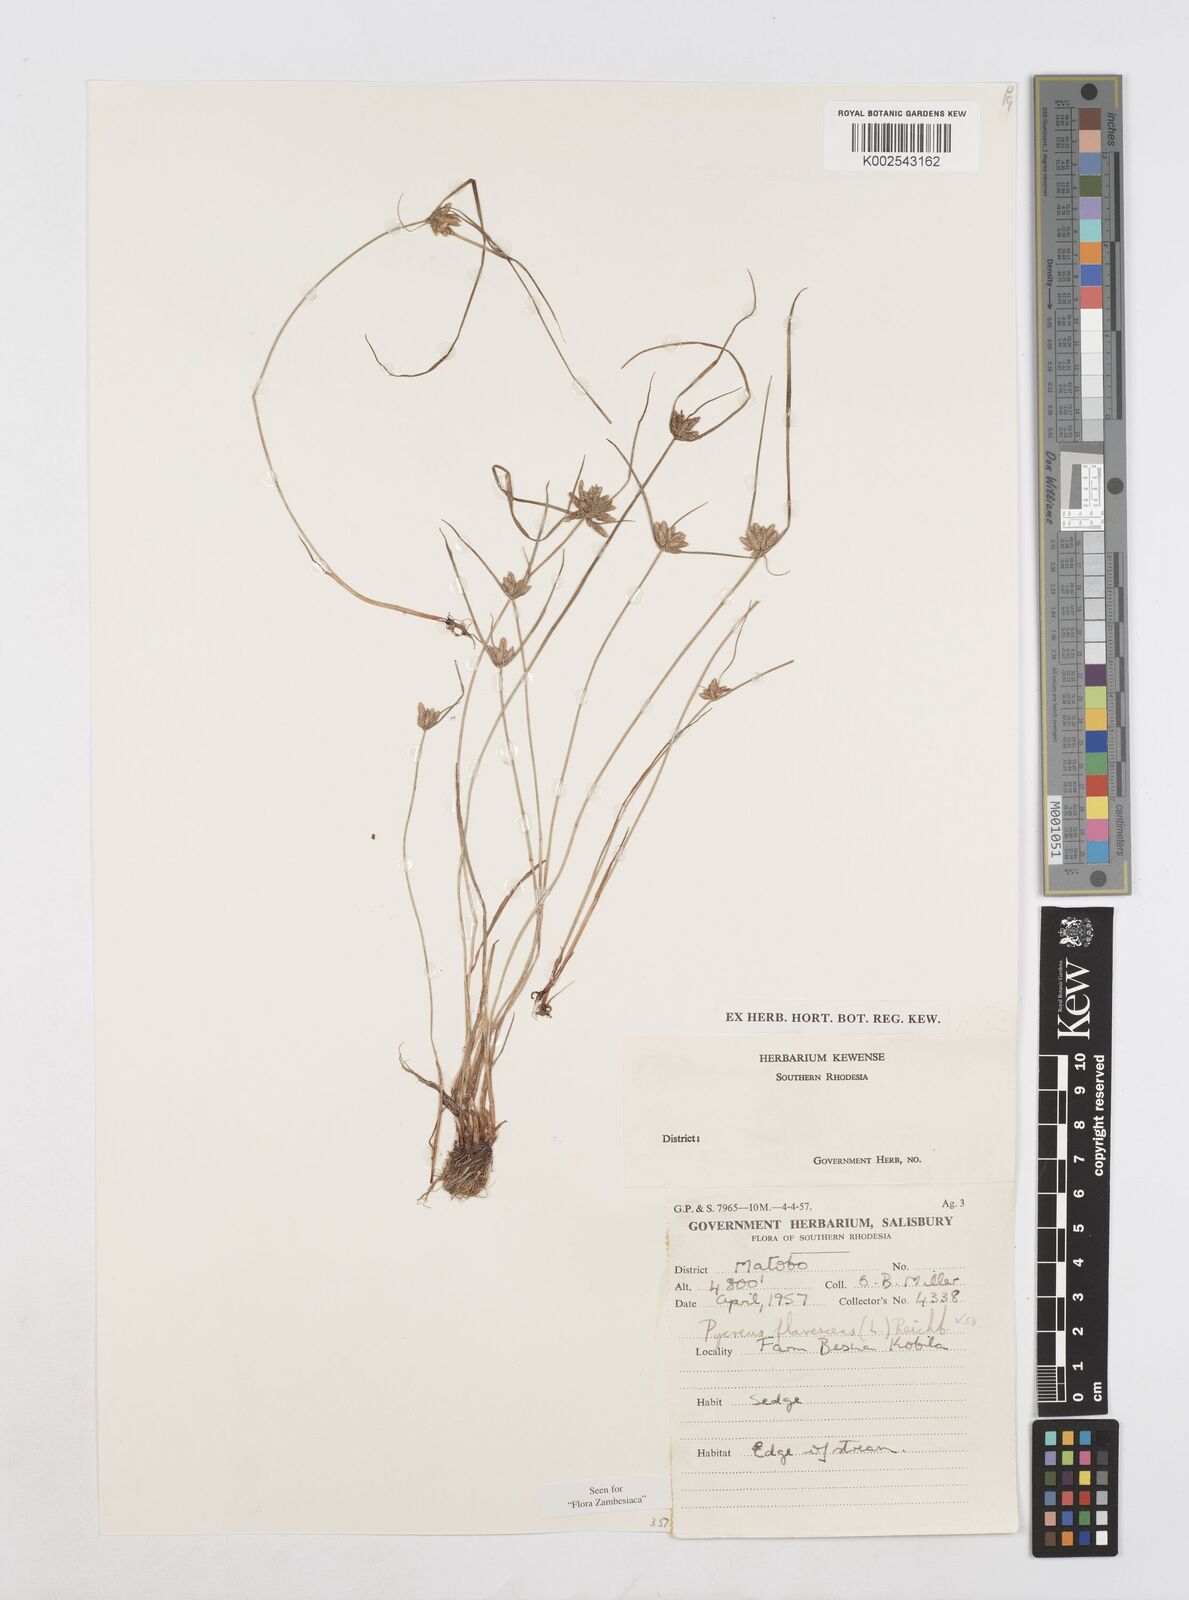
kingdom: Plantae
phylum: Tracheophyta
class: Liliopsida
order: Poales
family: Cyperaceae
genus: Cyperus
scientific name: Cyperus flavescens
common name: Yellow galingale
